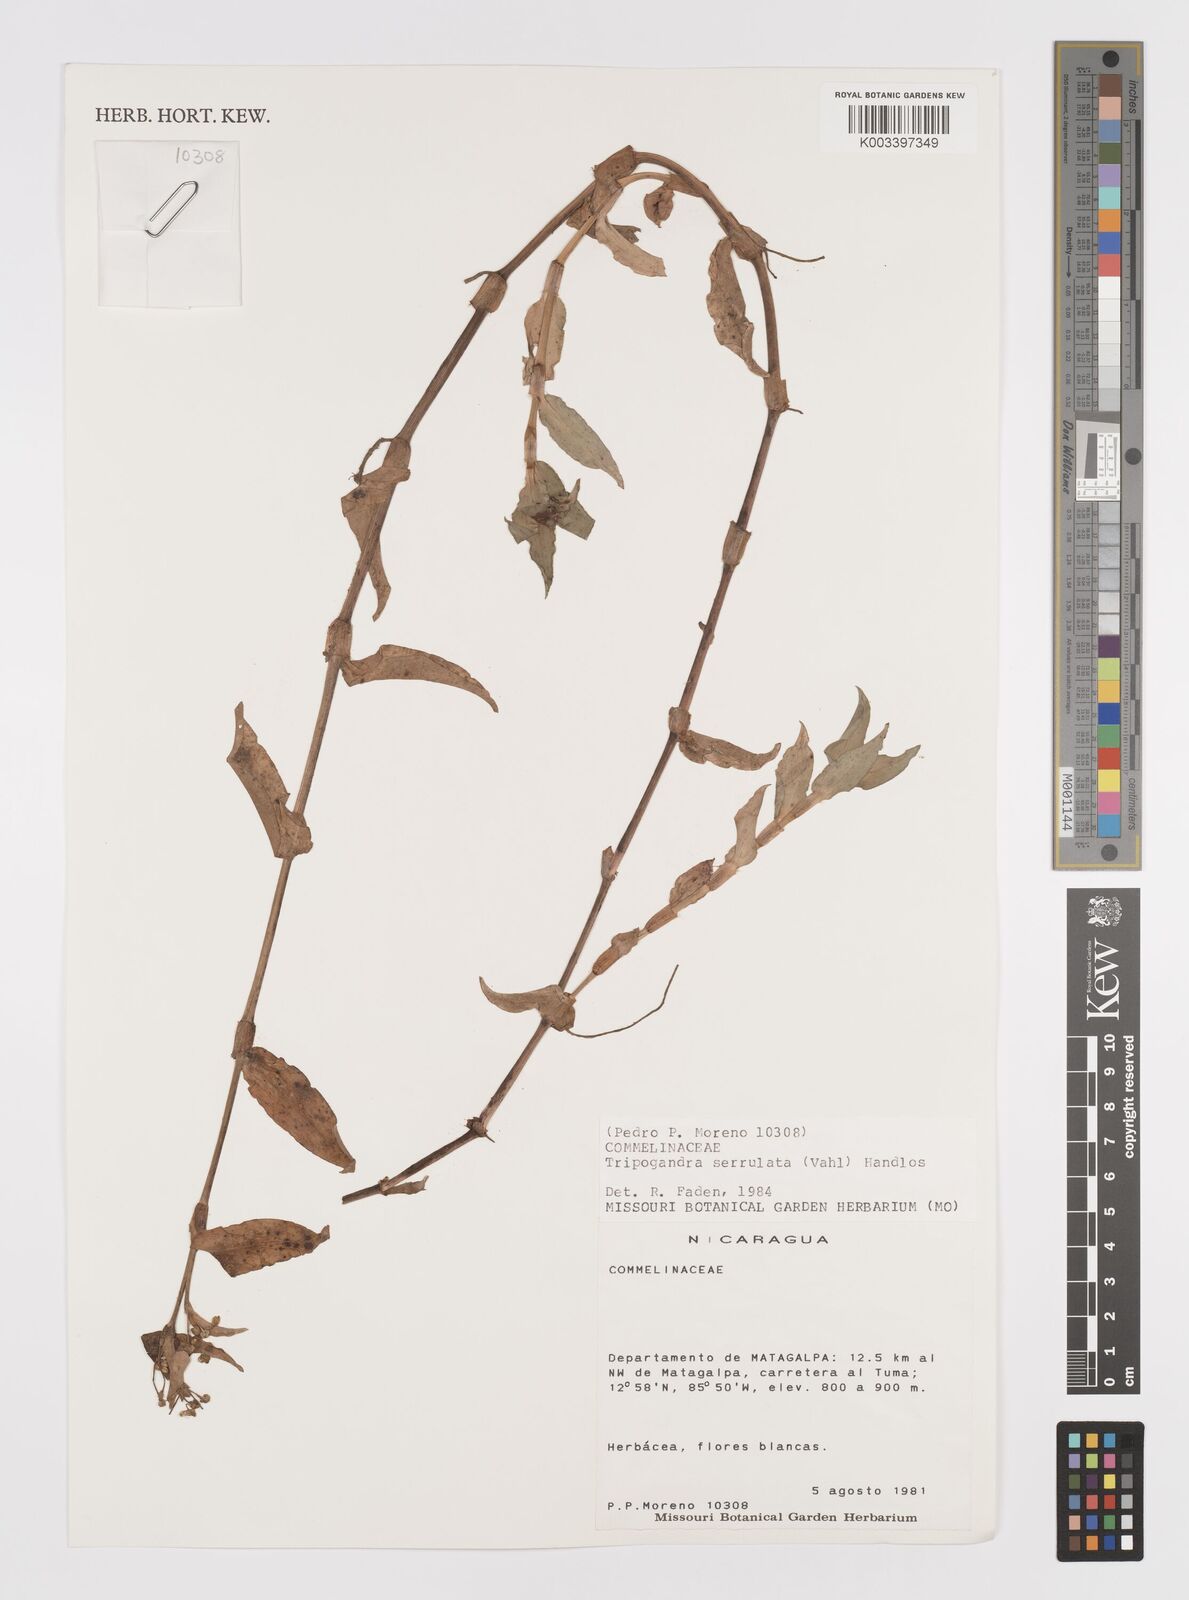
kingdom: Plantae
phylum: Tracheophyta
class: Liliopsida
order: Commelinales
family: Commelinaceae
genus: Callisia
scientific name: Callisia serrulata
